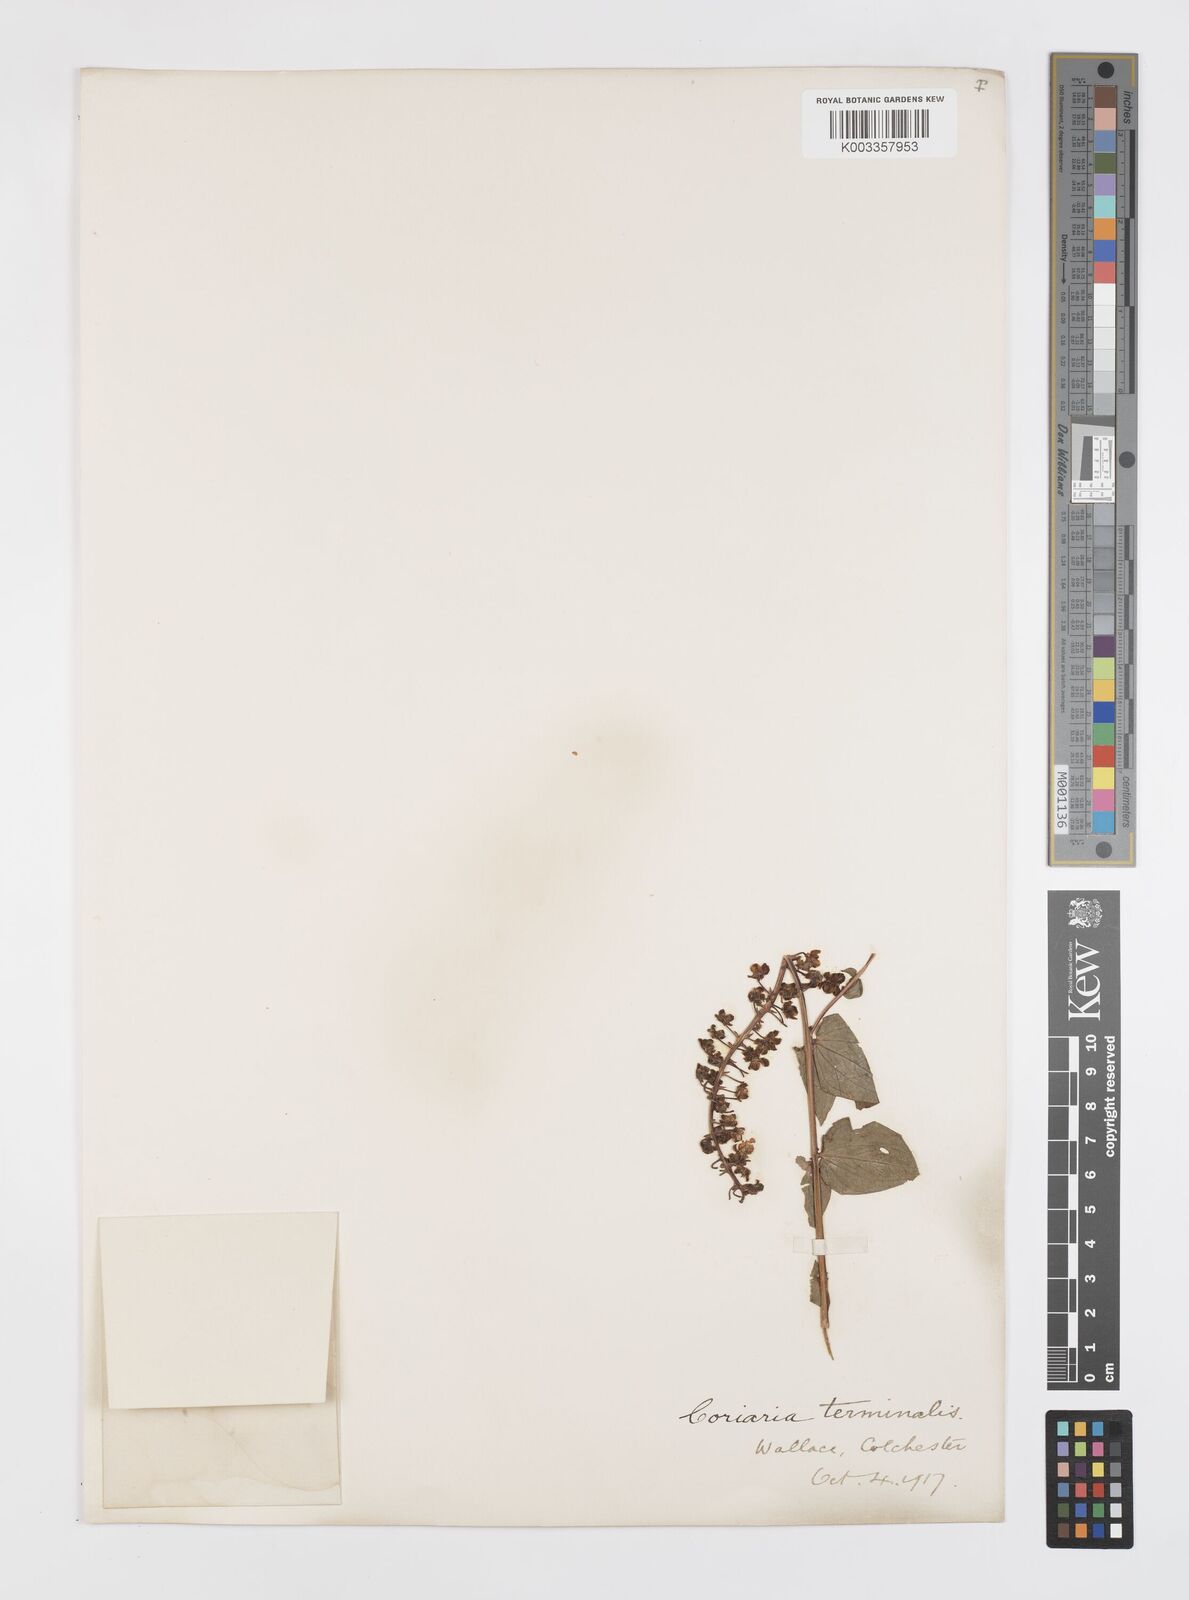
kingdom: Plantae
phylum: Tracheophyta
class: Magnoliopsida
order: Cucurbitales
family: Coriariaceae
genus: Coriaria
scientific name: Coriaria terminalis
